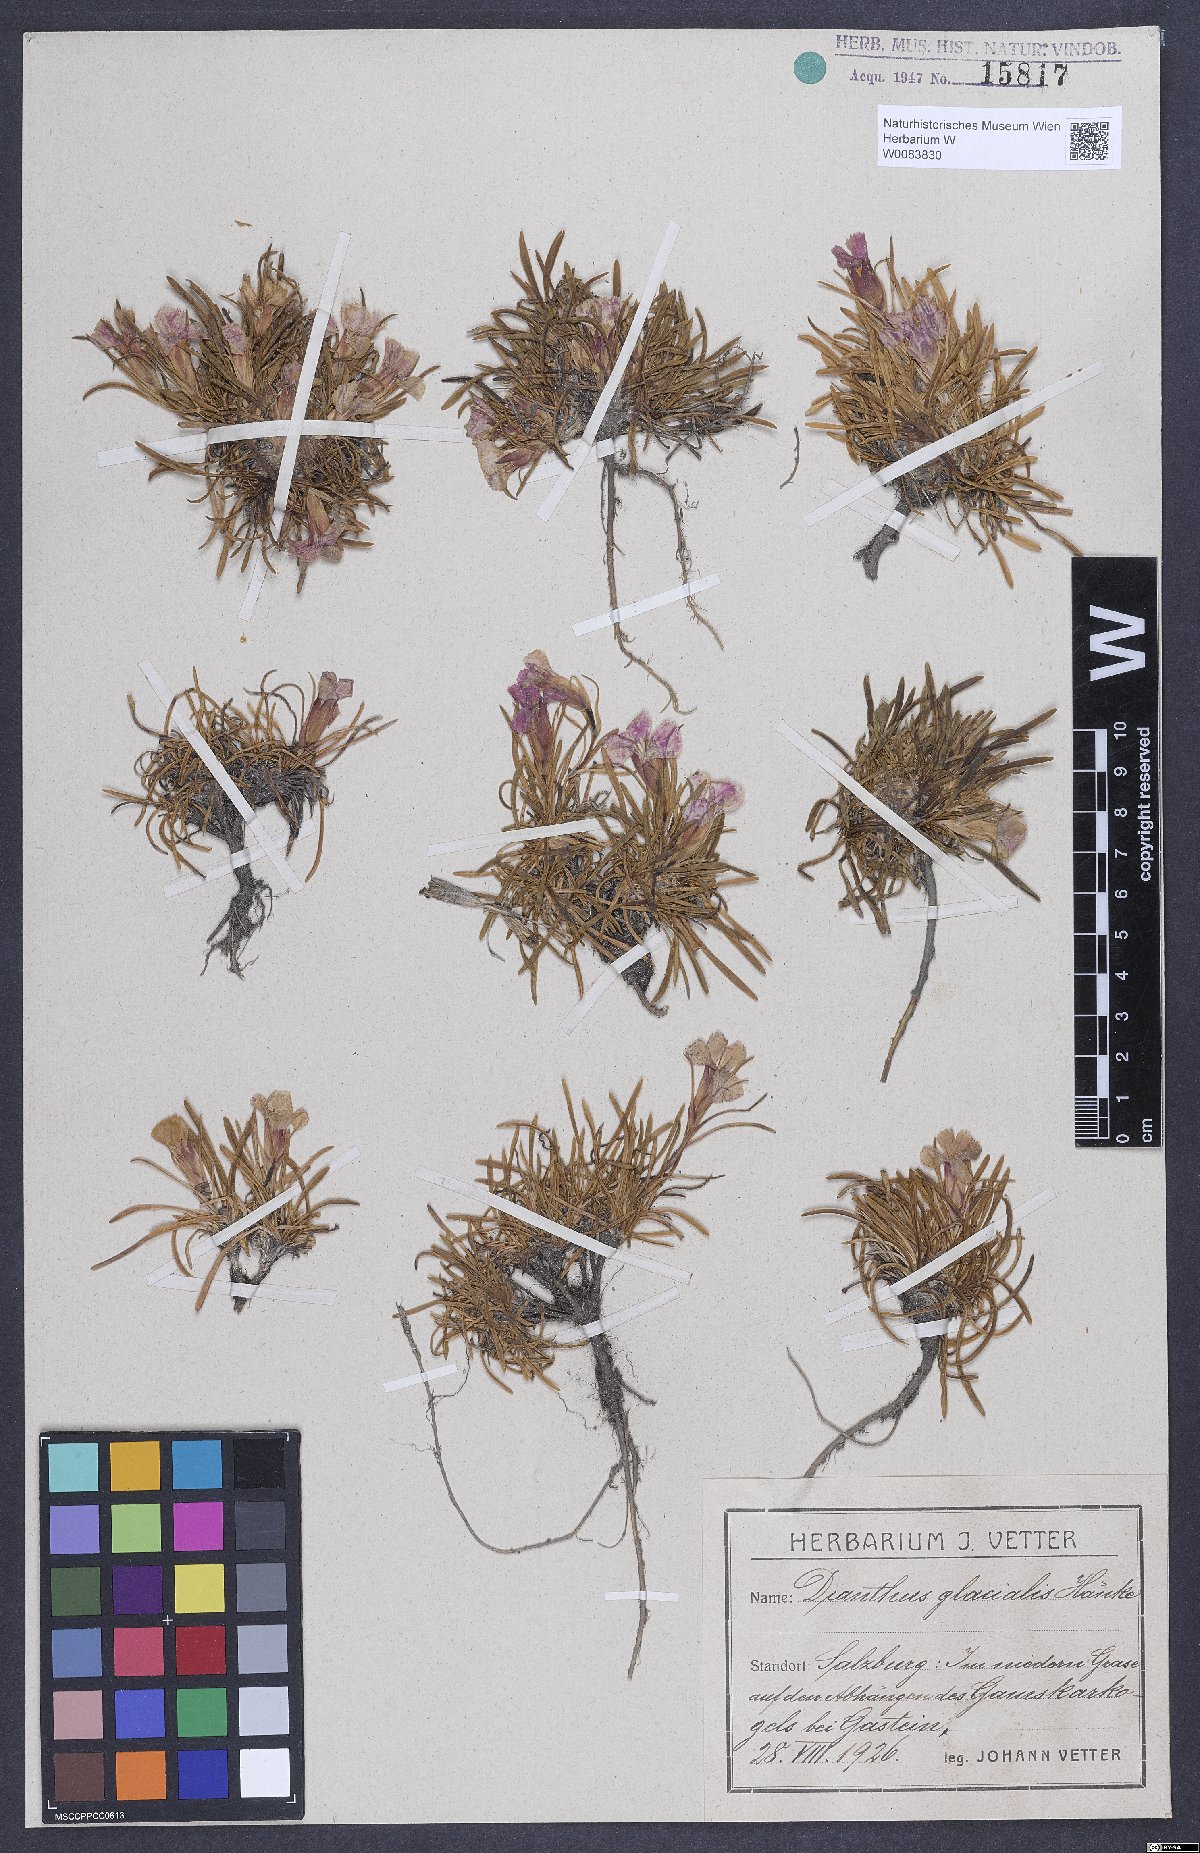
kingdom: Plantae
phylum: Tracheophyta
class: Magnoliopsida
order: Caryophyllales
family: Caryophyllaceae
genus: Dianthus
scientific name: Dianthus glacialis
